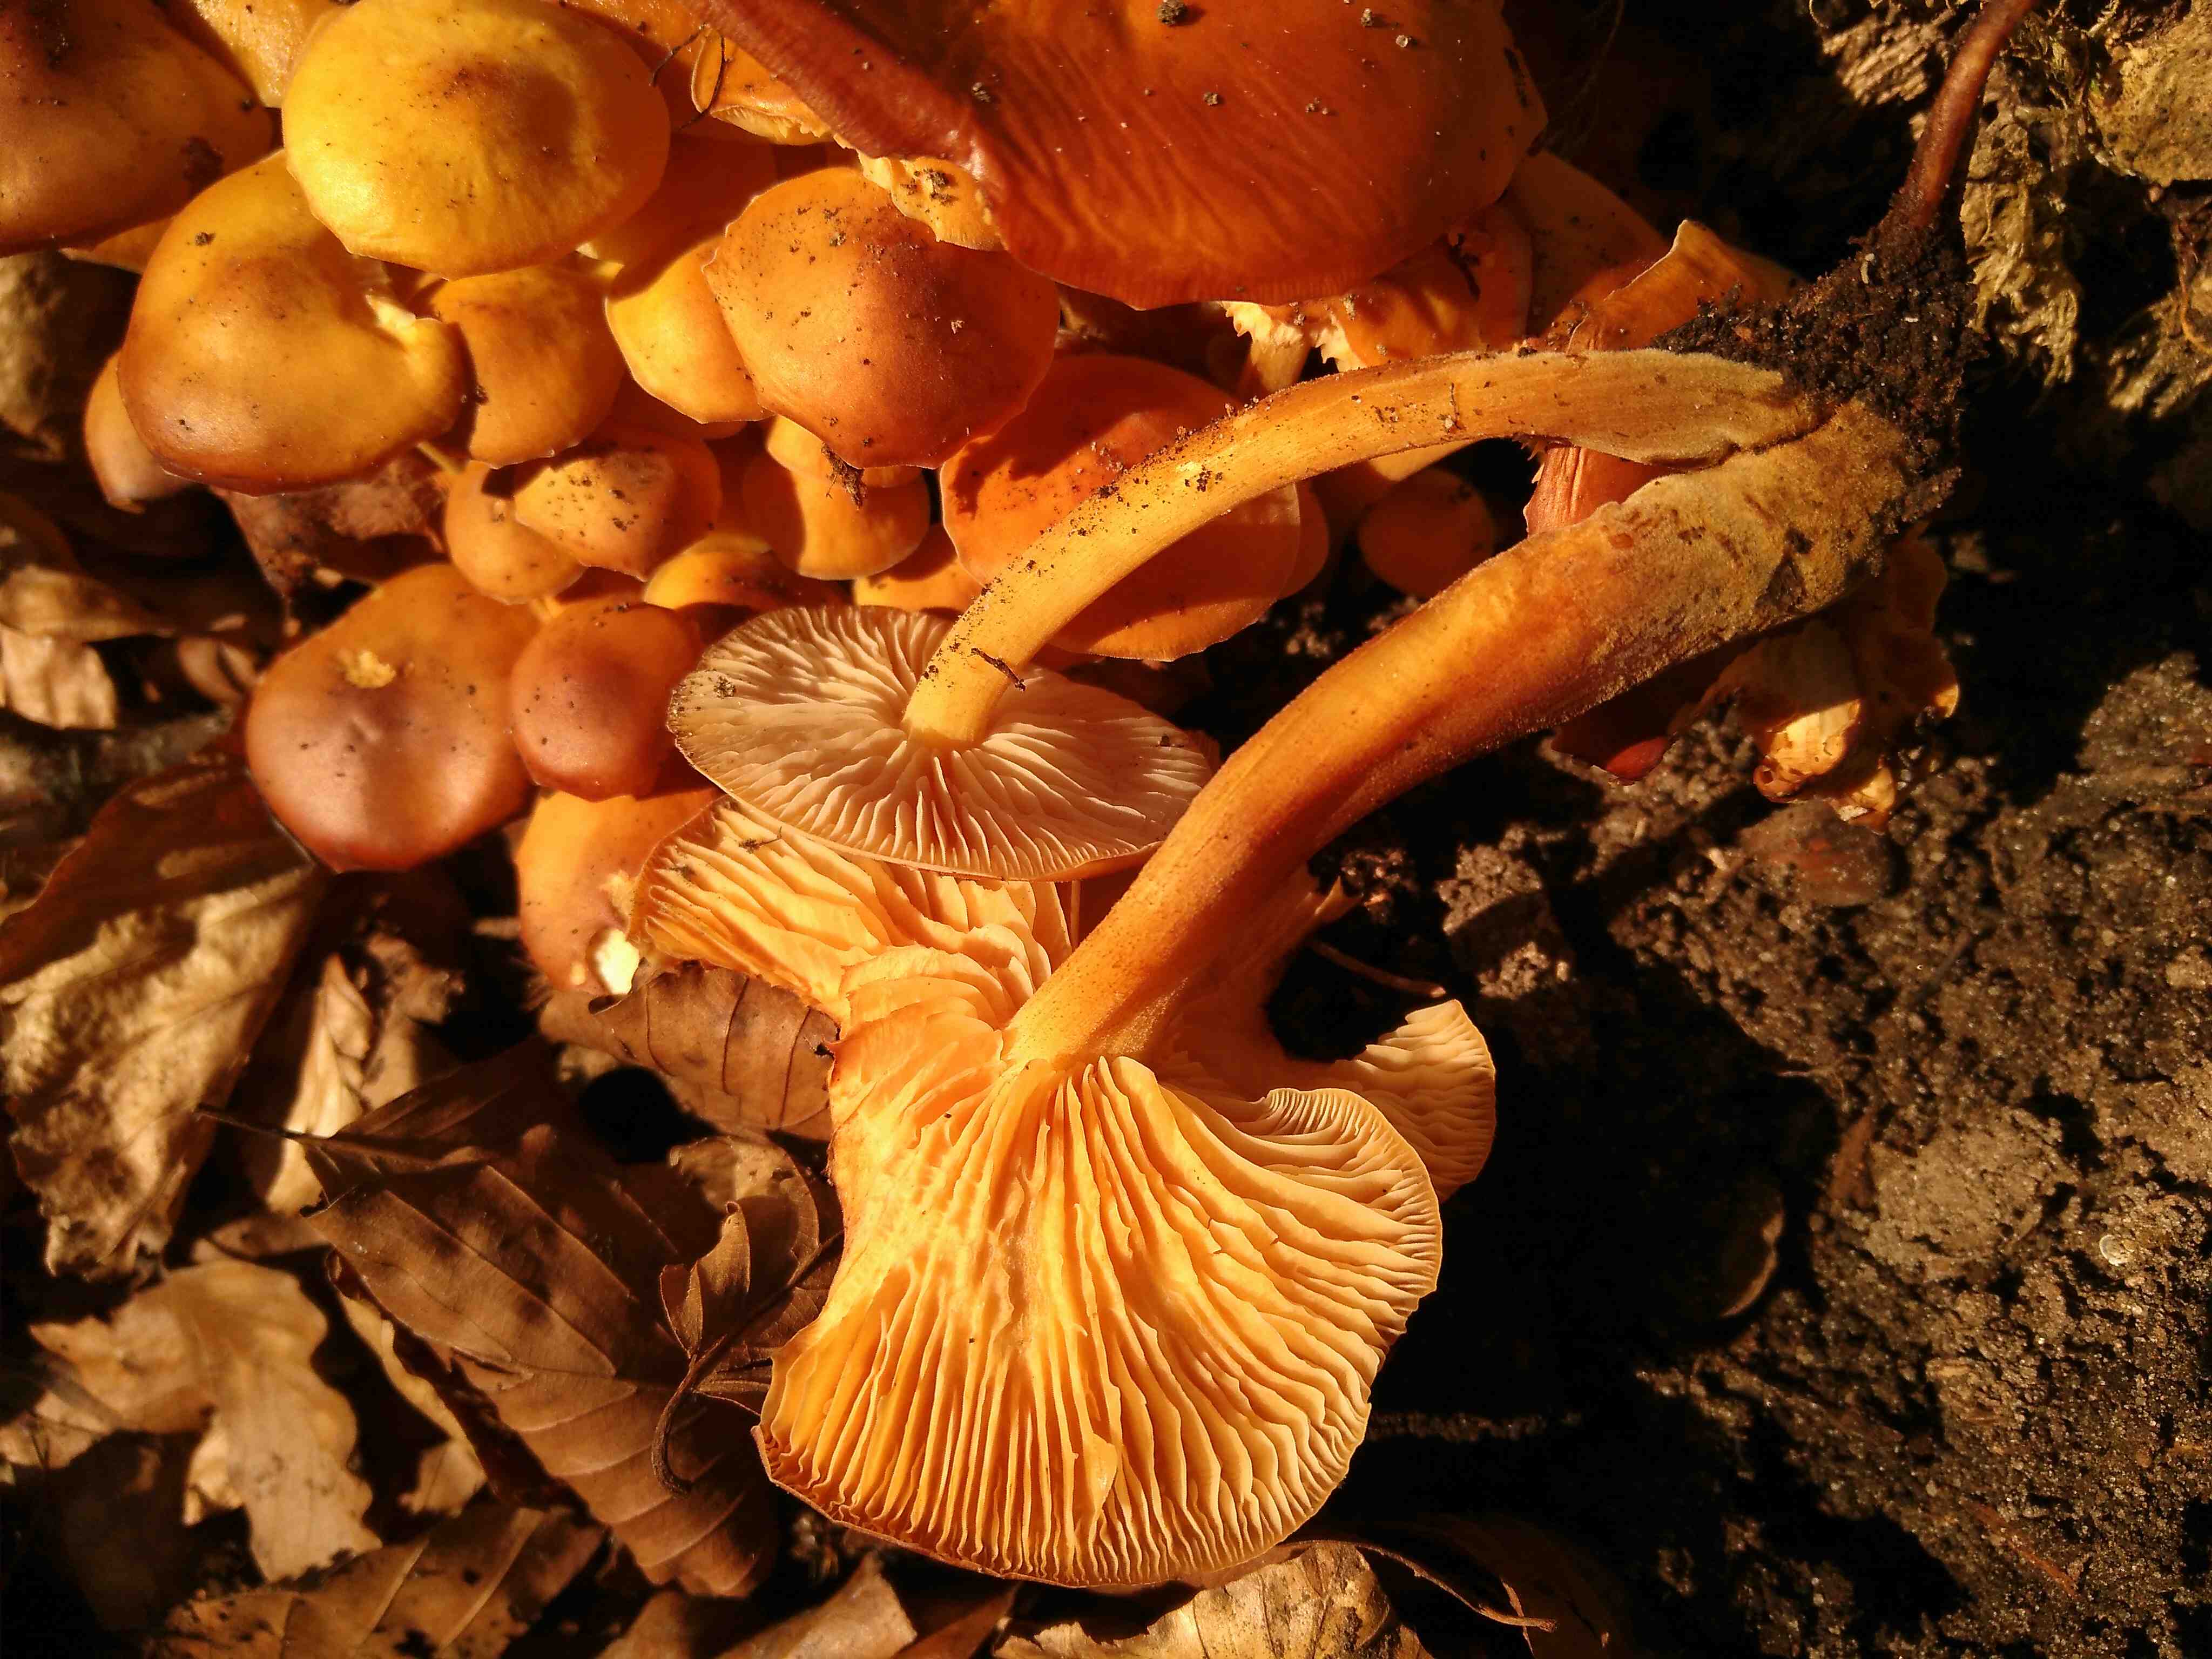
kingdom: Fungi
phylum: Basidiomycota
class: Agaricomycetes
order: Agaricales
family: Physalacriaceae
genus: Flammulina
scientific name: Flammulina
